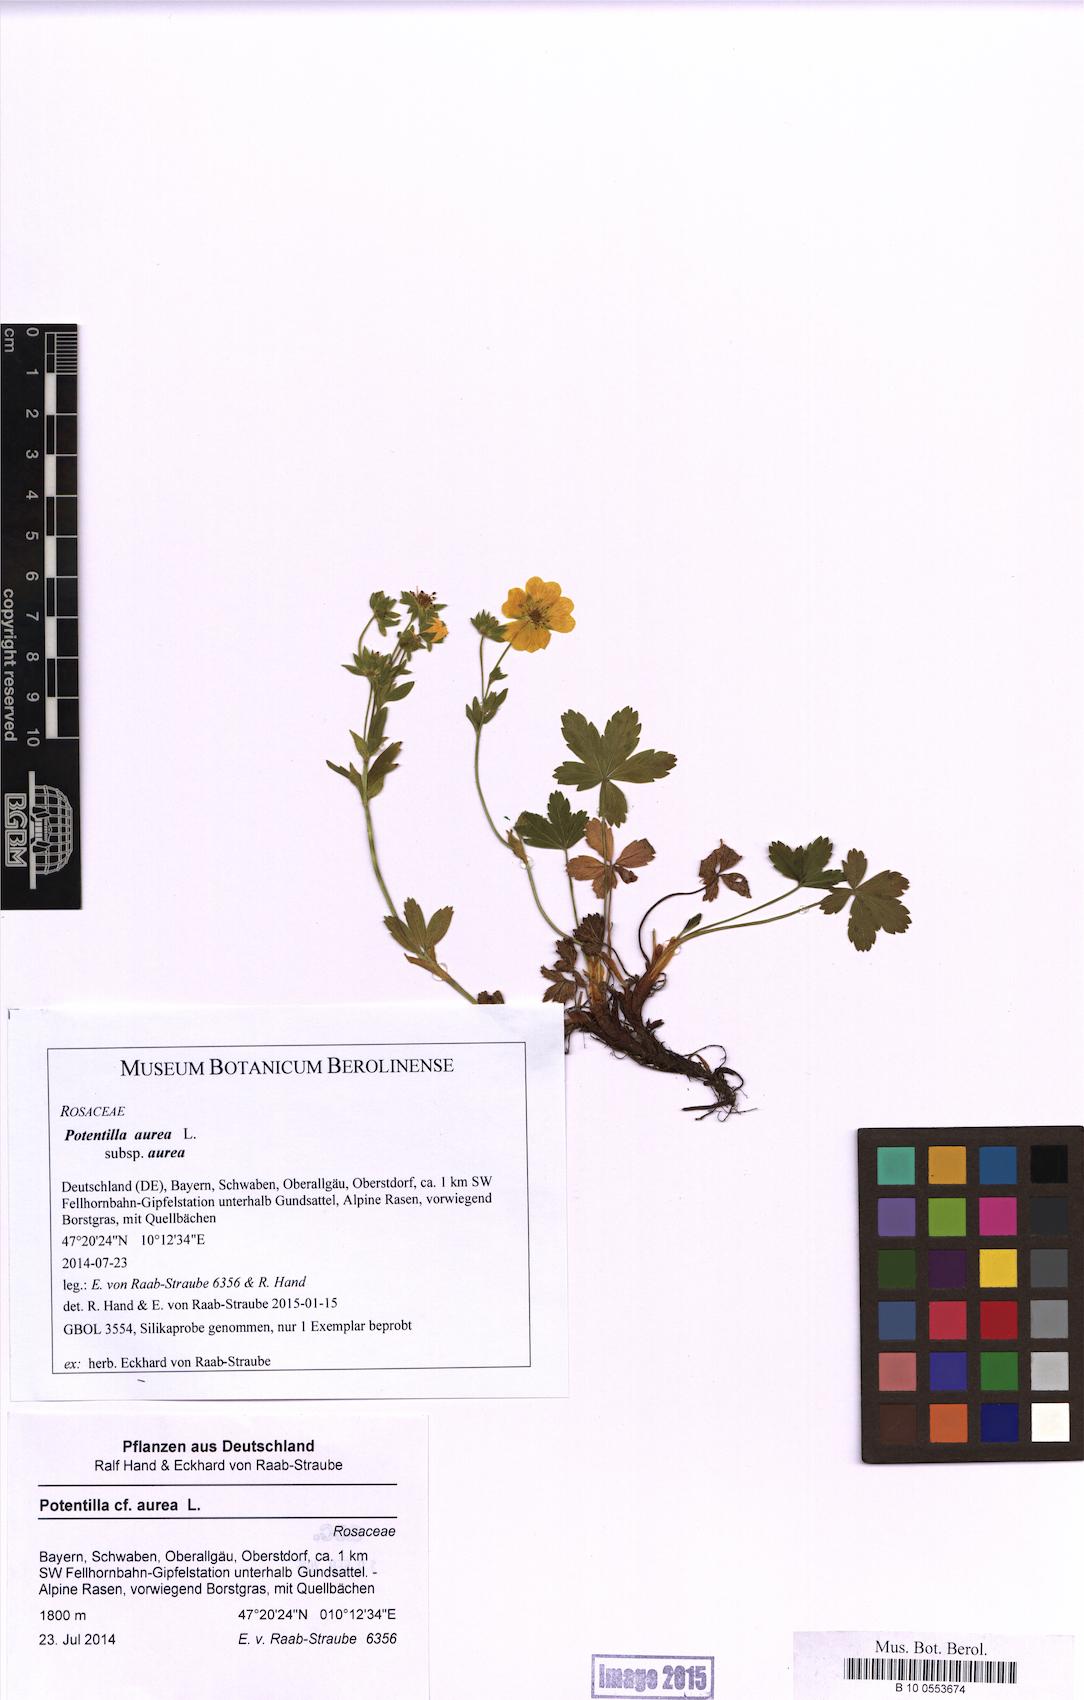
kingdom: Plantae
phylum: Tracheophyta
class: Magnoliopsida
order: Rosales
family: Rosaceae
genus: Potentilla
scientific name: Potentilla aurea
